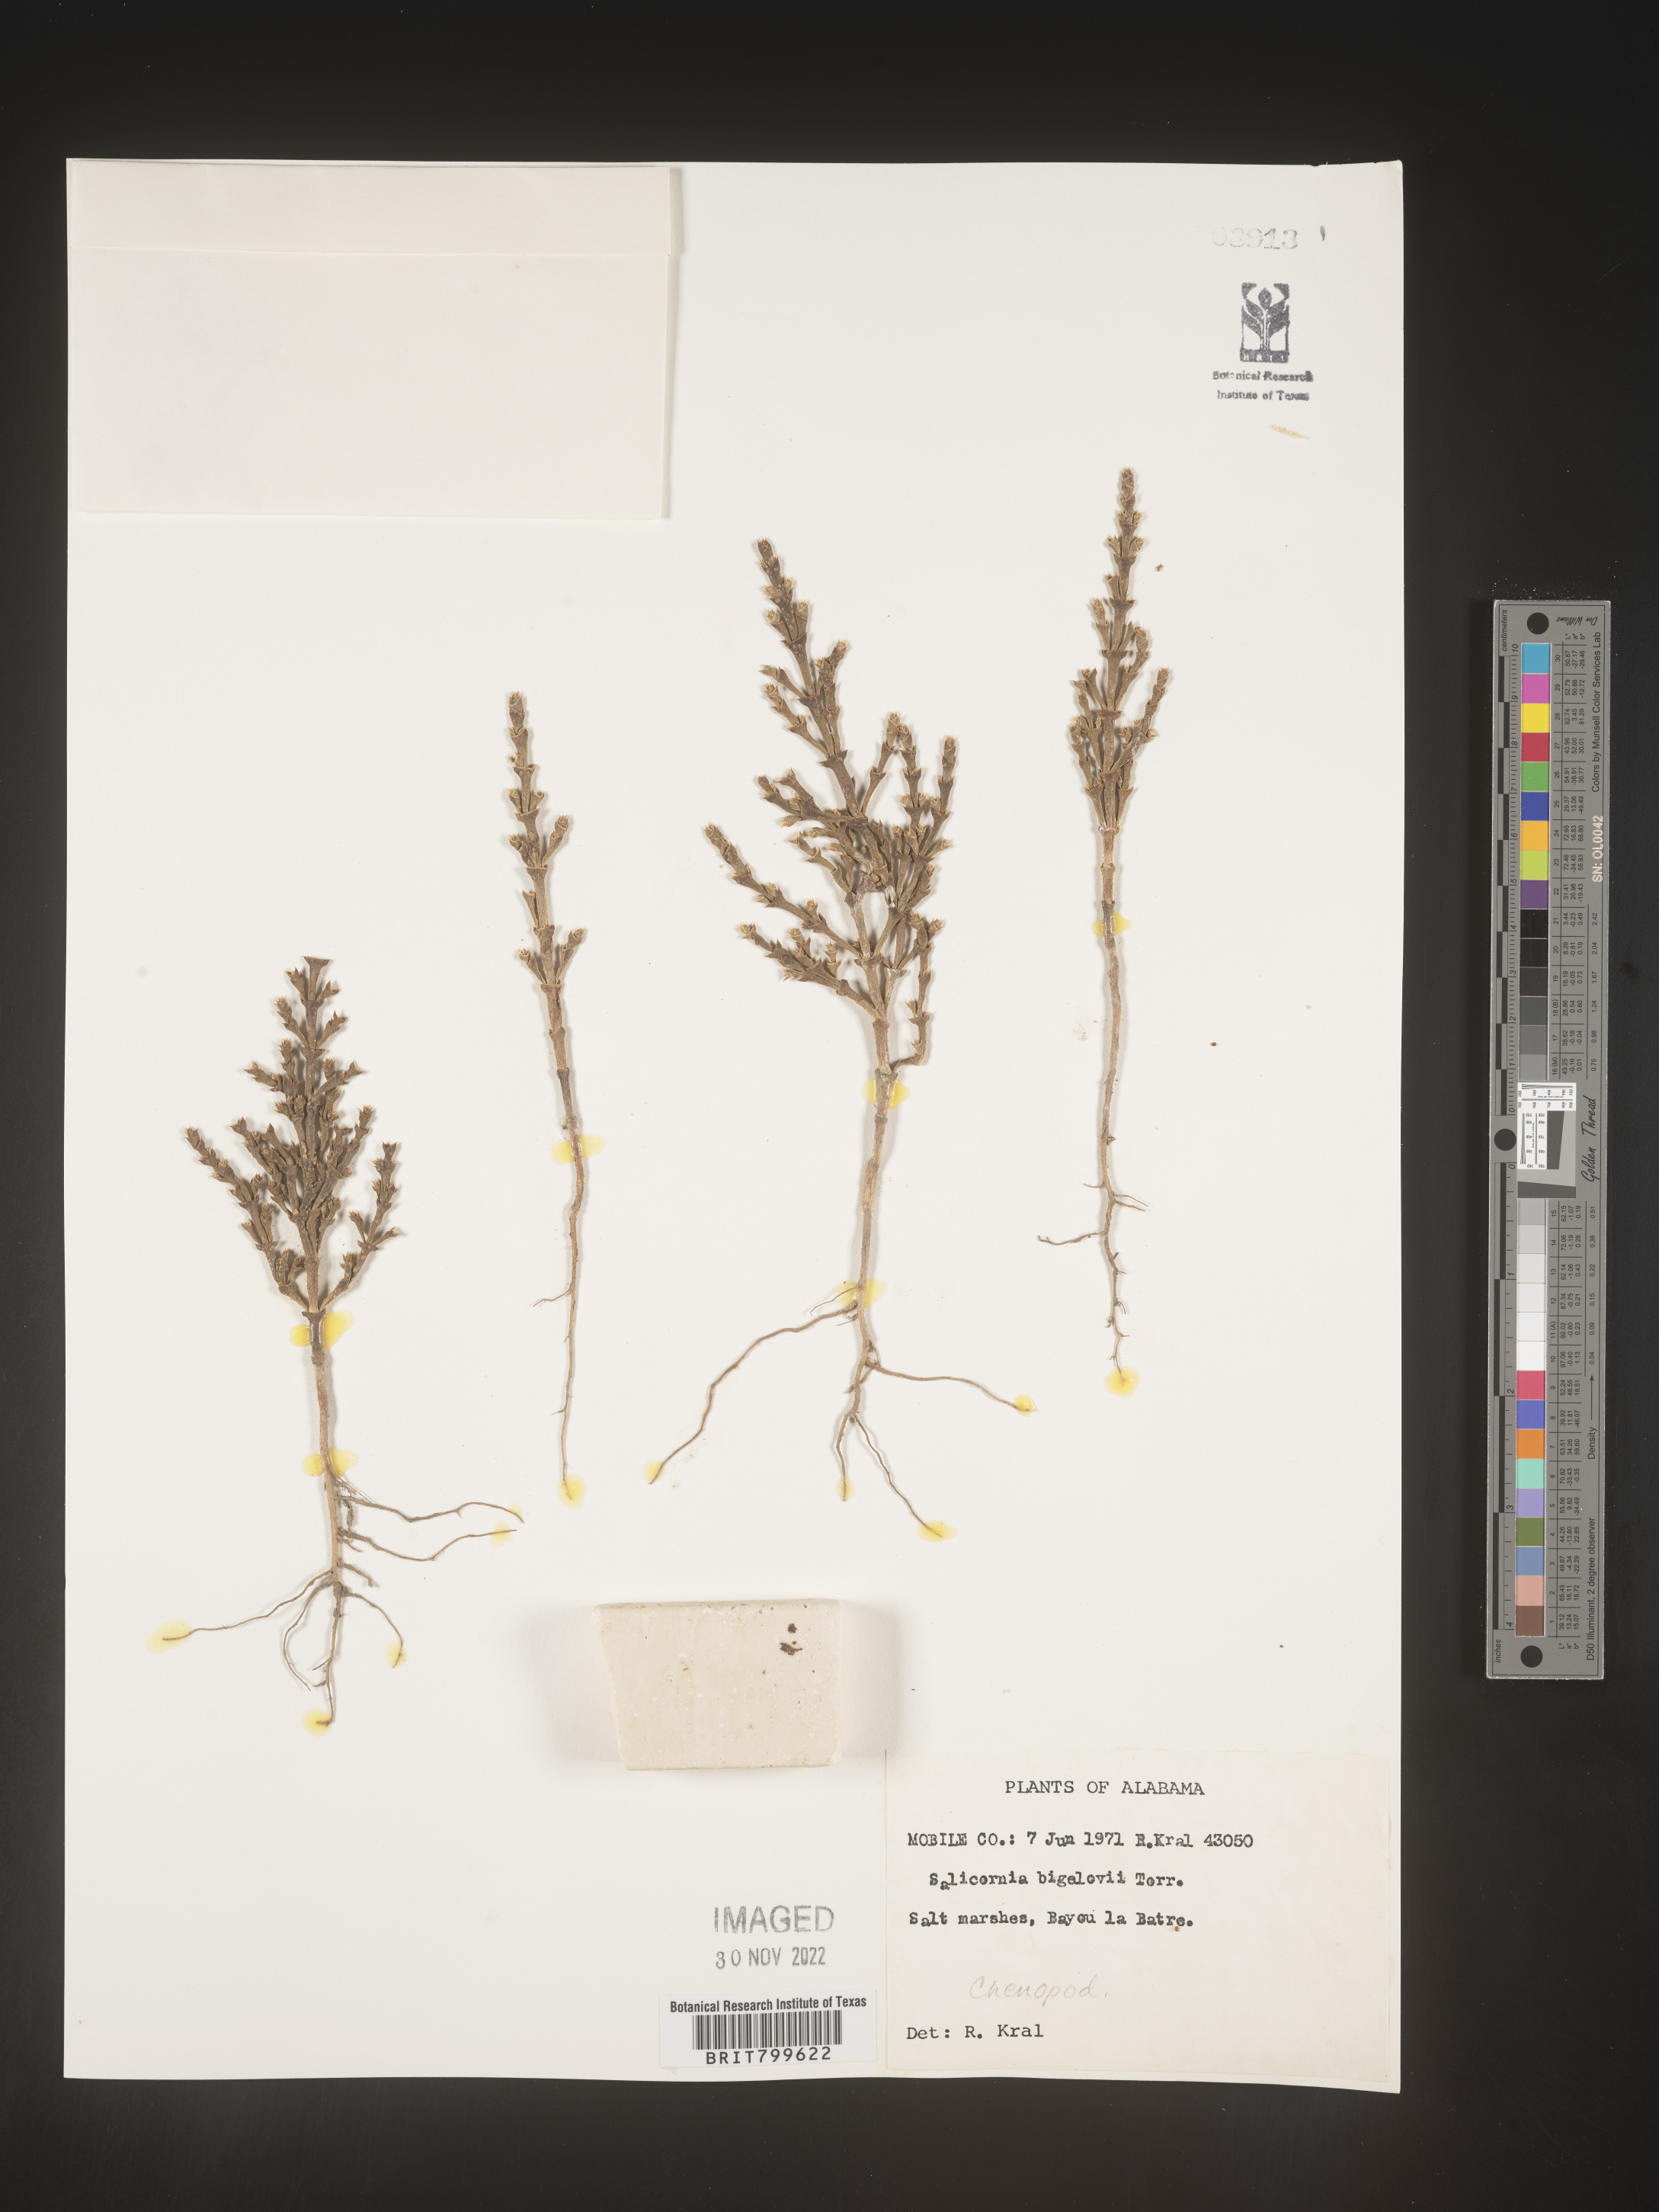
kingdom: Plantae
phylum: Tracheophyta
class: Magnoliopsida
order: Caryophyllales
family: Amaranthaceae
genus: Salicornia
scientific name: Salicornia bigelovii
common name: Dwarf glasswort
